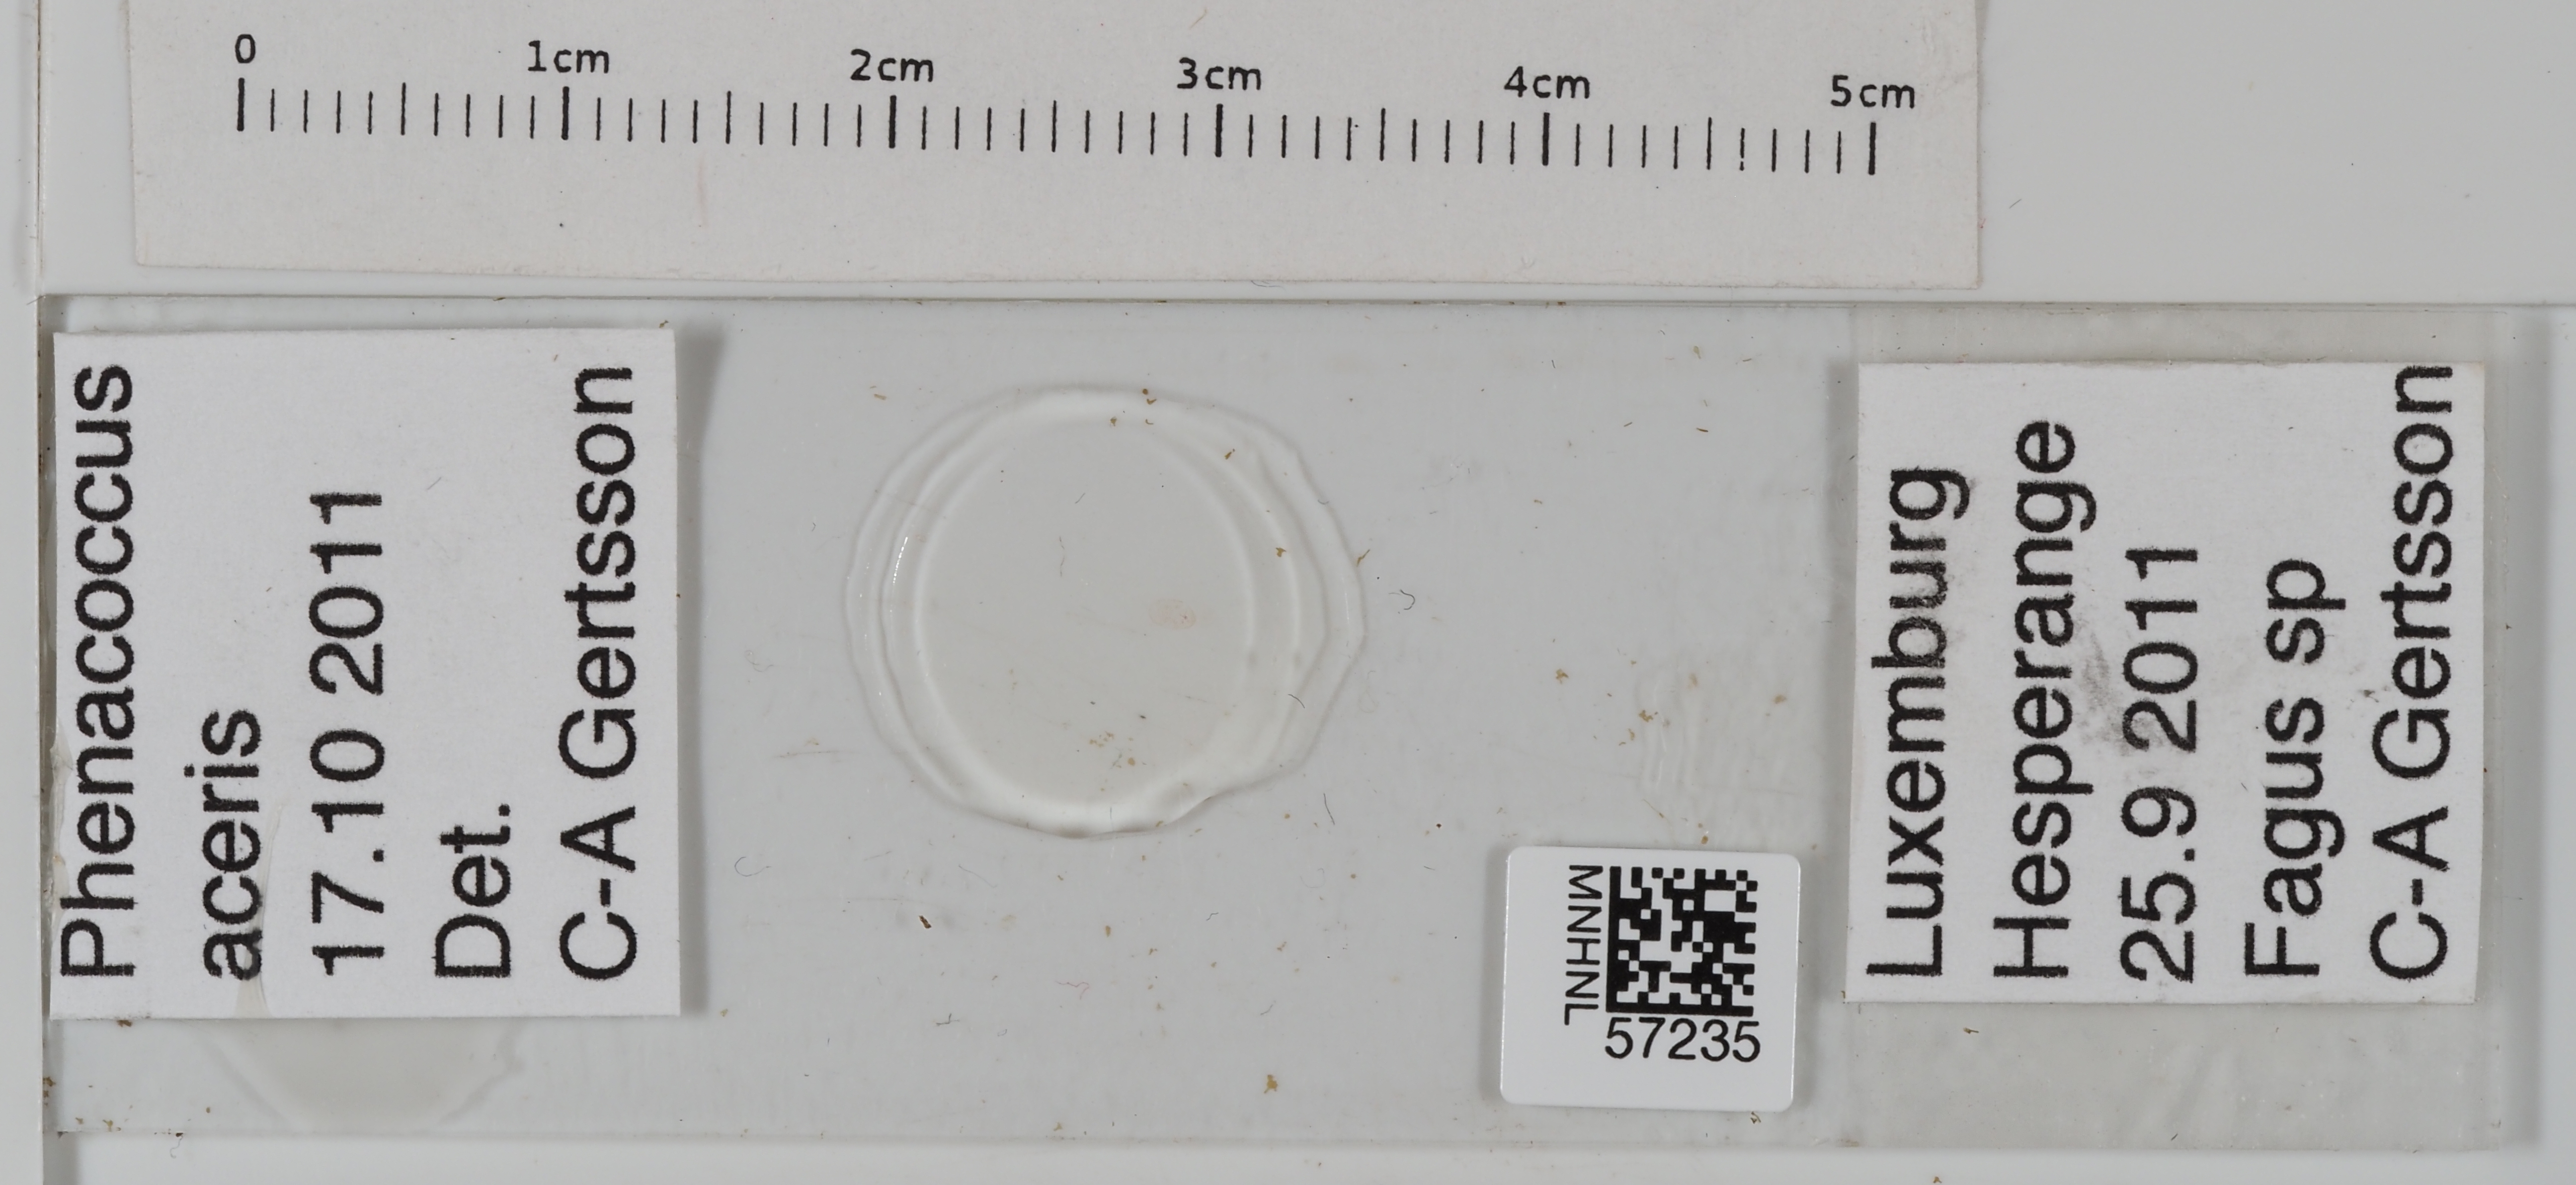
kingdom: Animalia
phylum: Arthropoda
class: Insecta
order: Hemiptera
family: Pseudococcidae
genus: Phenacoccus
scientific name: Phenacoccus aceris
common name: Apple mealybug
